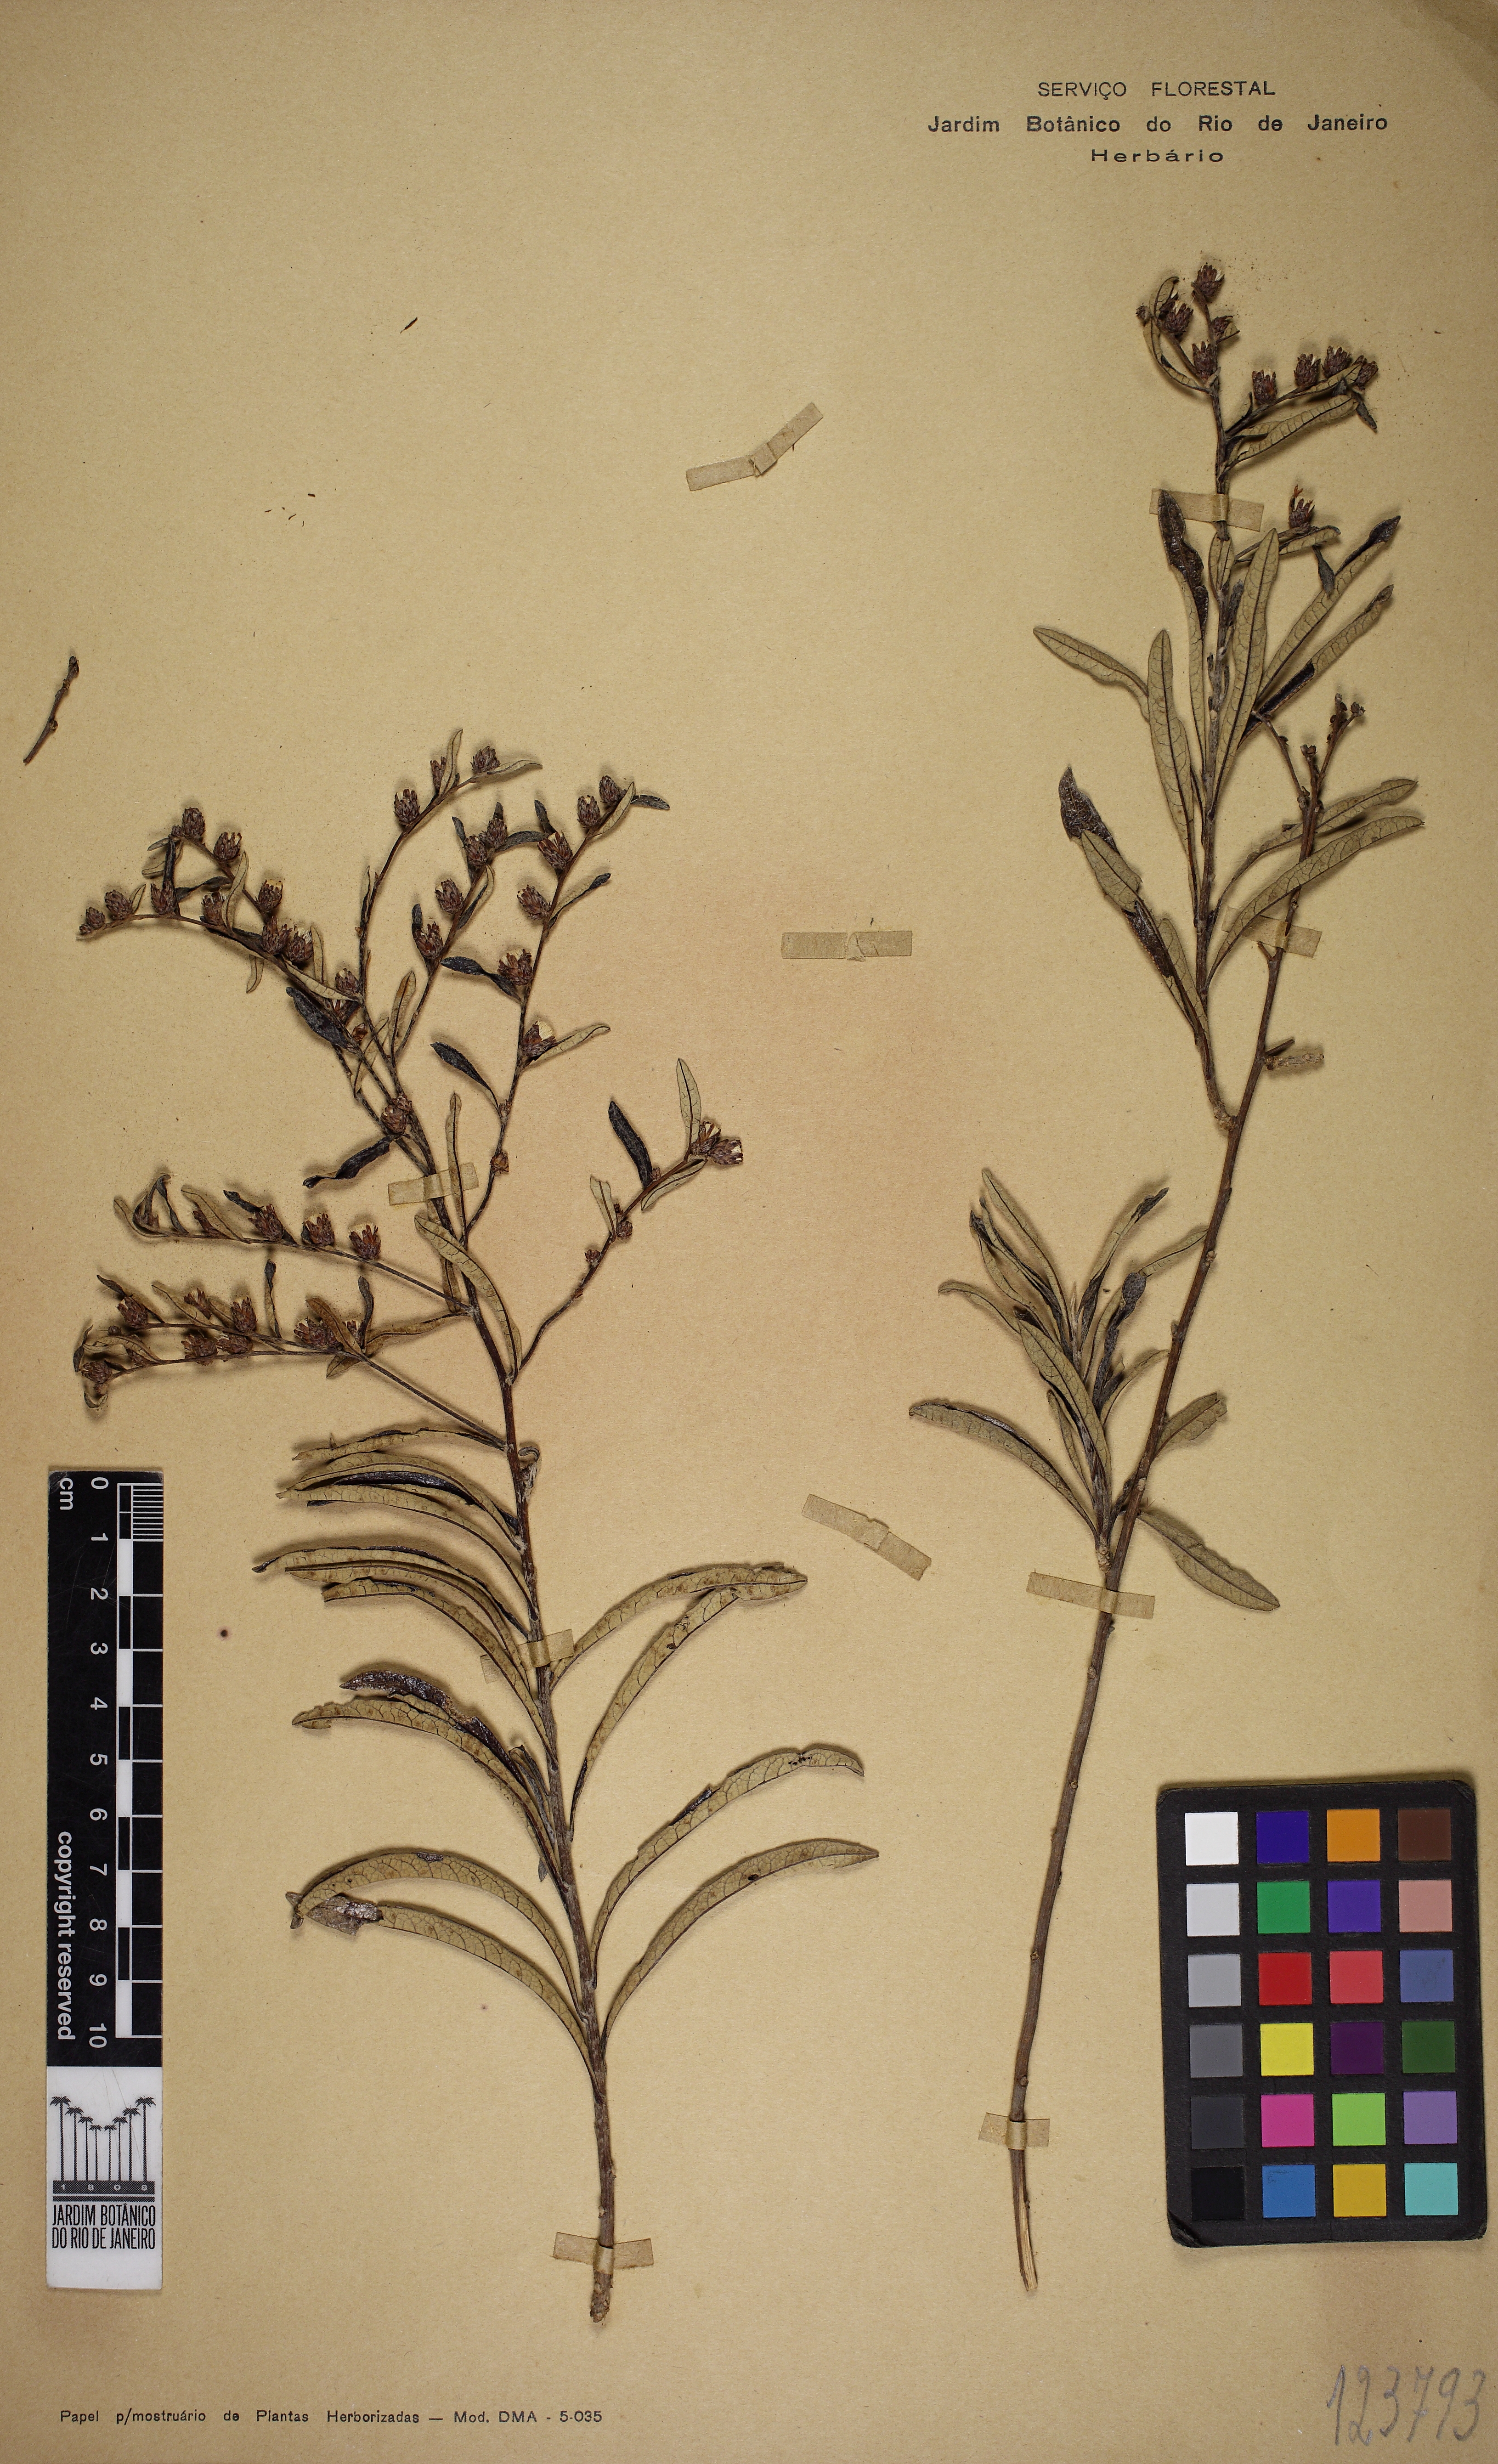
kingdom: Plantae
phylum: Tracheophyta
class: Magnoliopsida
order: Asterales
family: Asteraceae
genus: Lessingianthus
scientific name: Lessingianthus elegans
